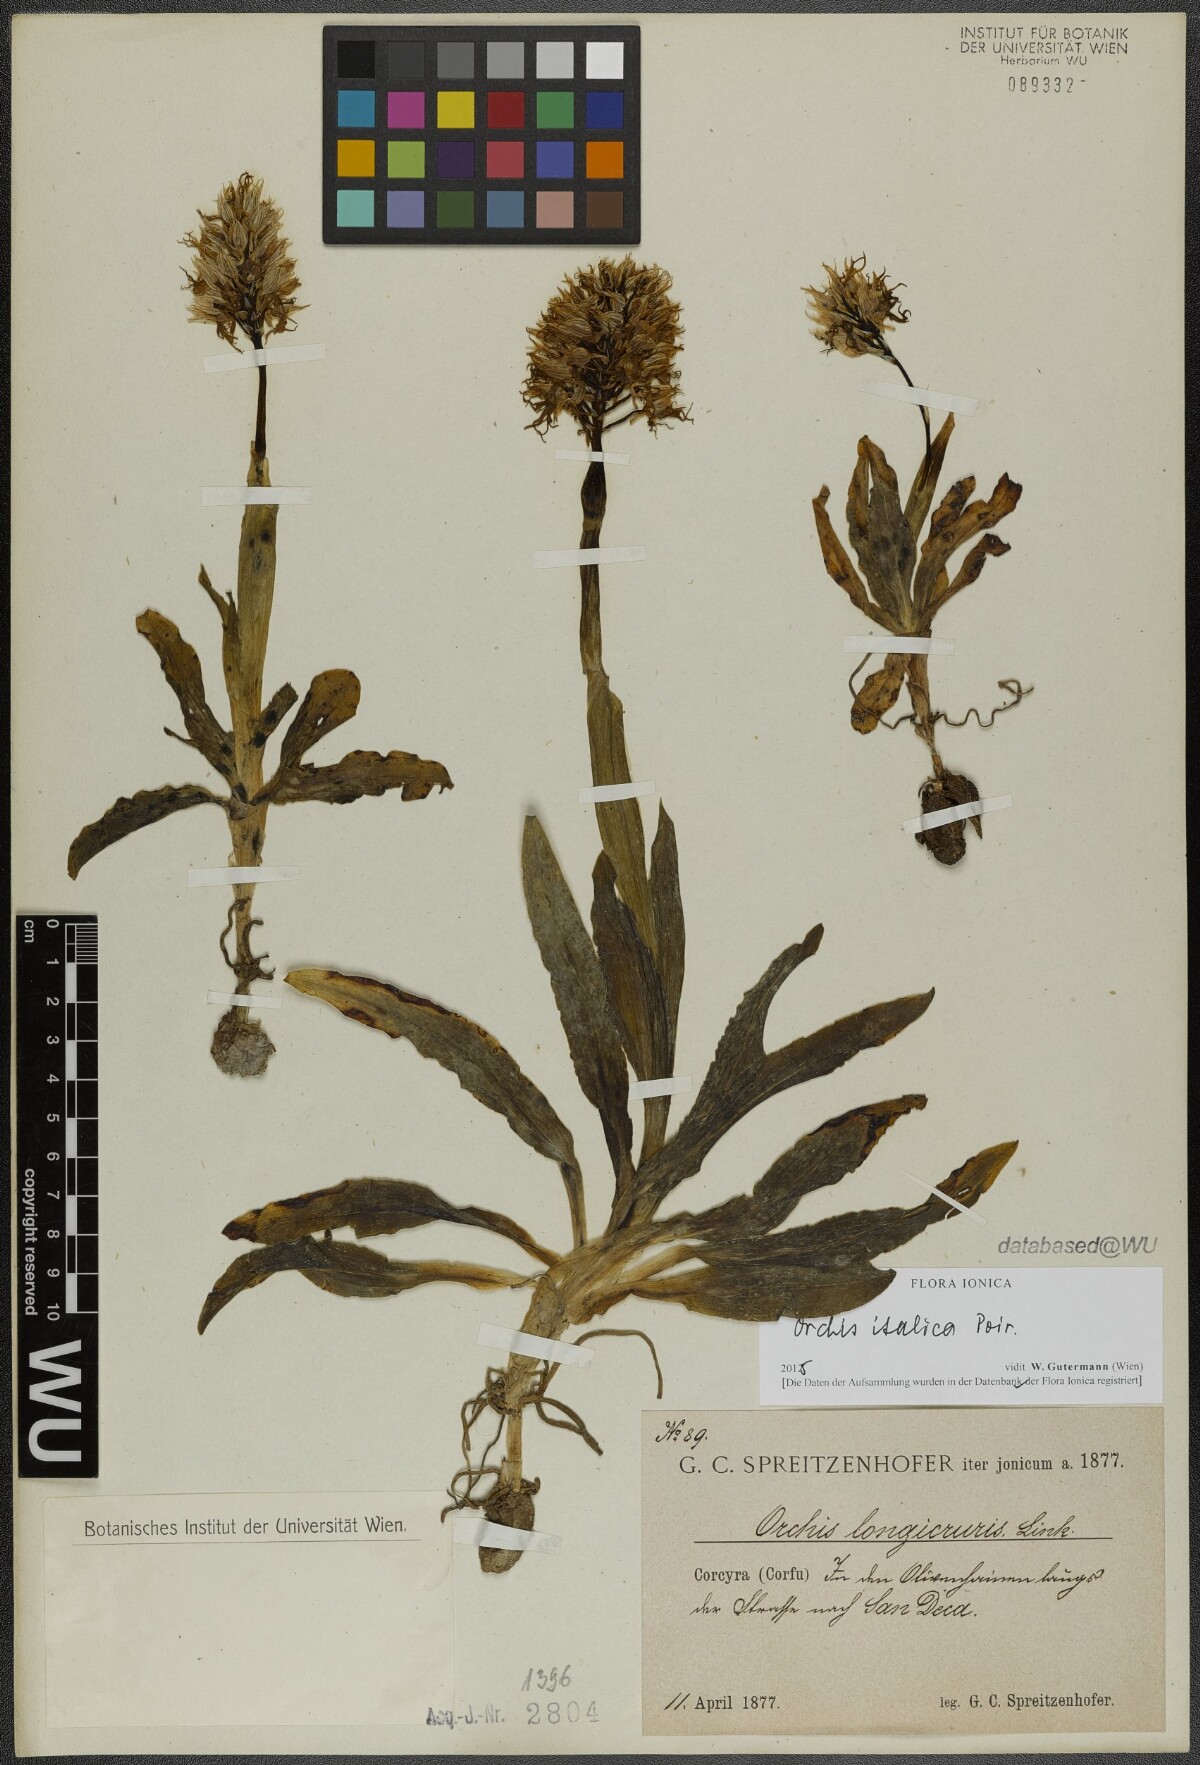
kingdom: Plantae
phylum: Tracheophyta
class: Liliopsida
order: Asparagales
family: Orchidaceae
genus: Orchis
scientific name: Orchis italica
